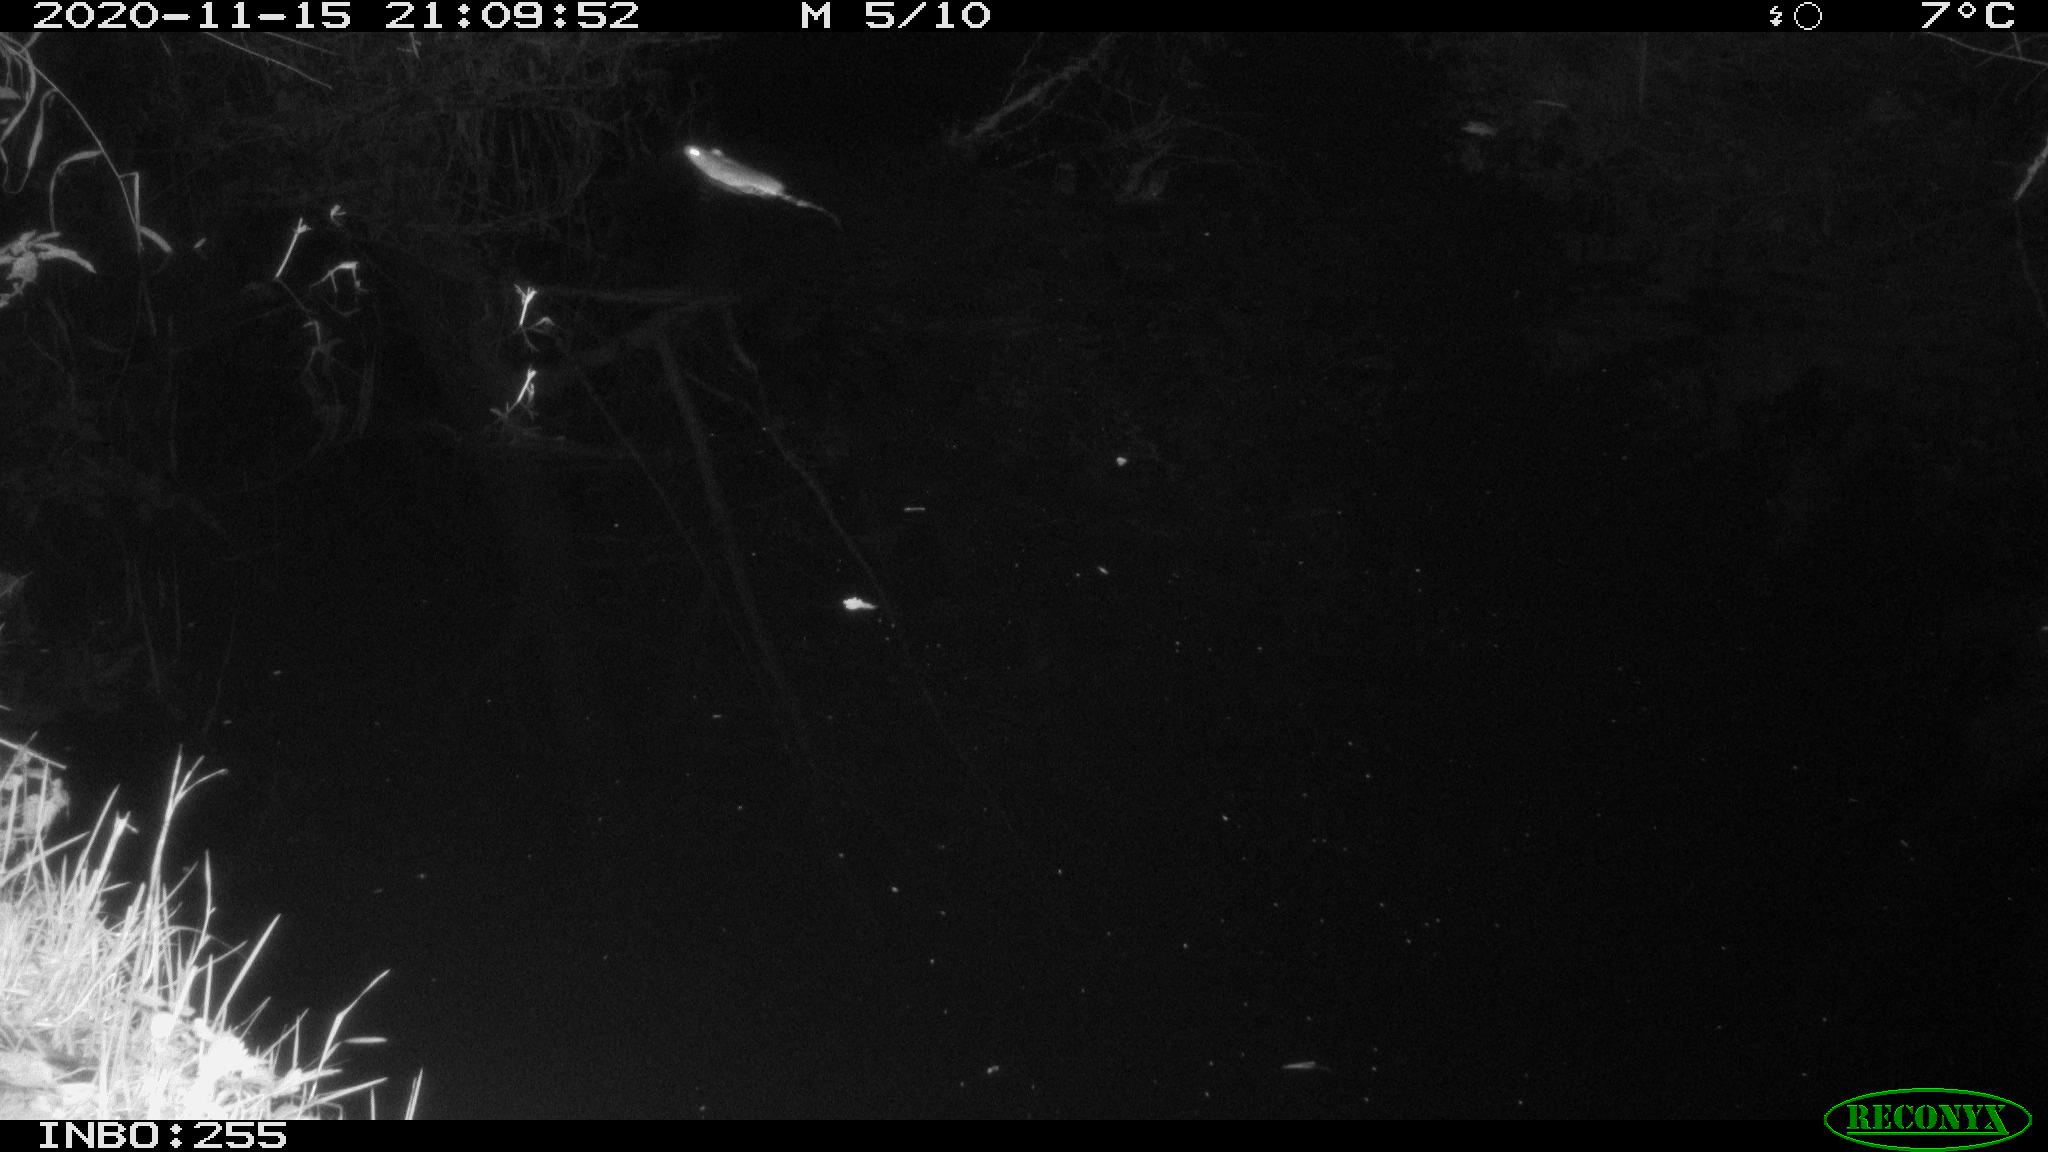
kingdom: Animalia
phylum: Chordata
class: Mammalia
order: Rodentia
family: Muridae
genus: Rattus
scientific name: Rattus norvegicus
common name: Brown rat
